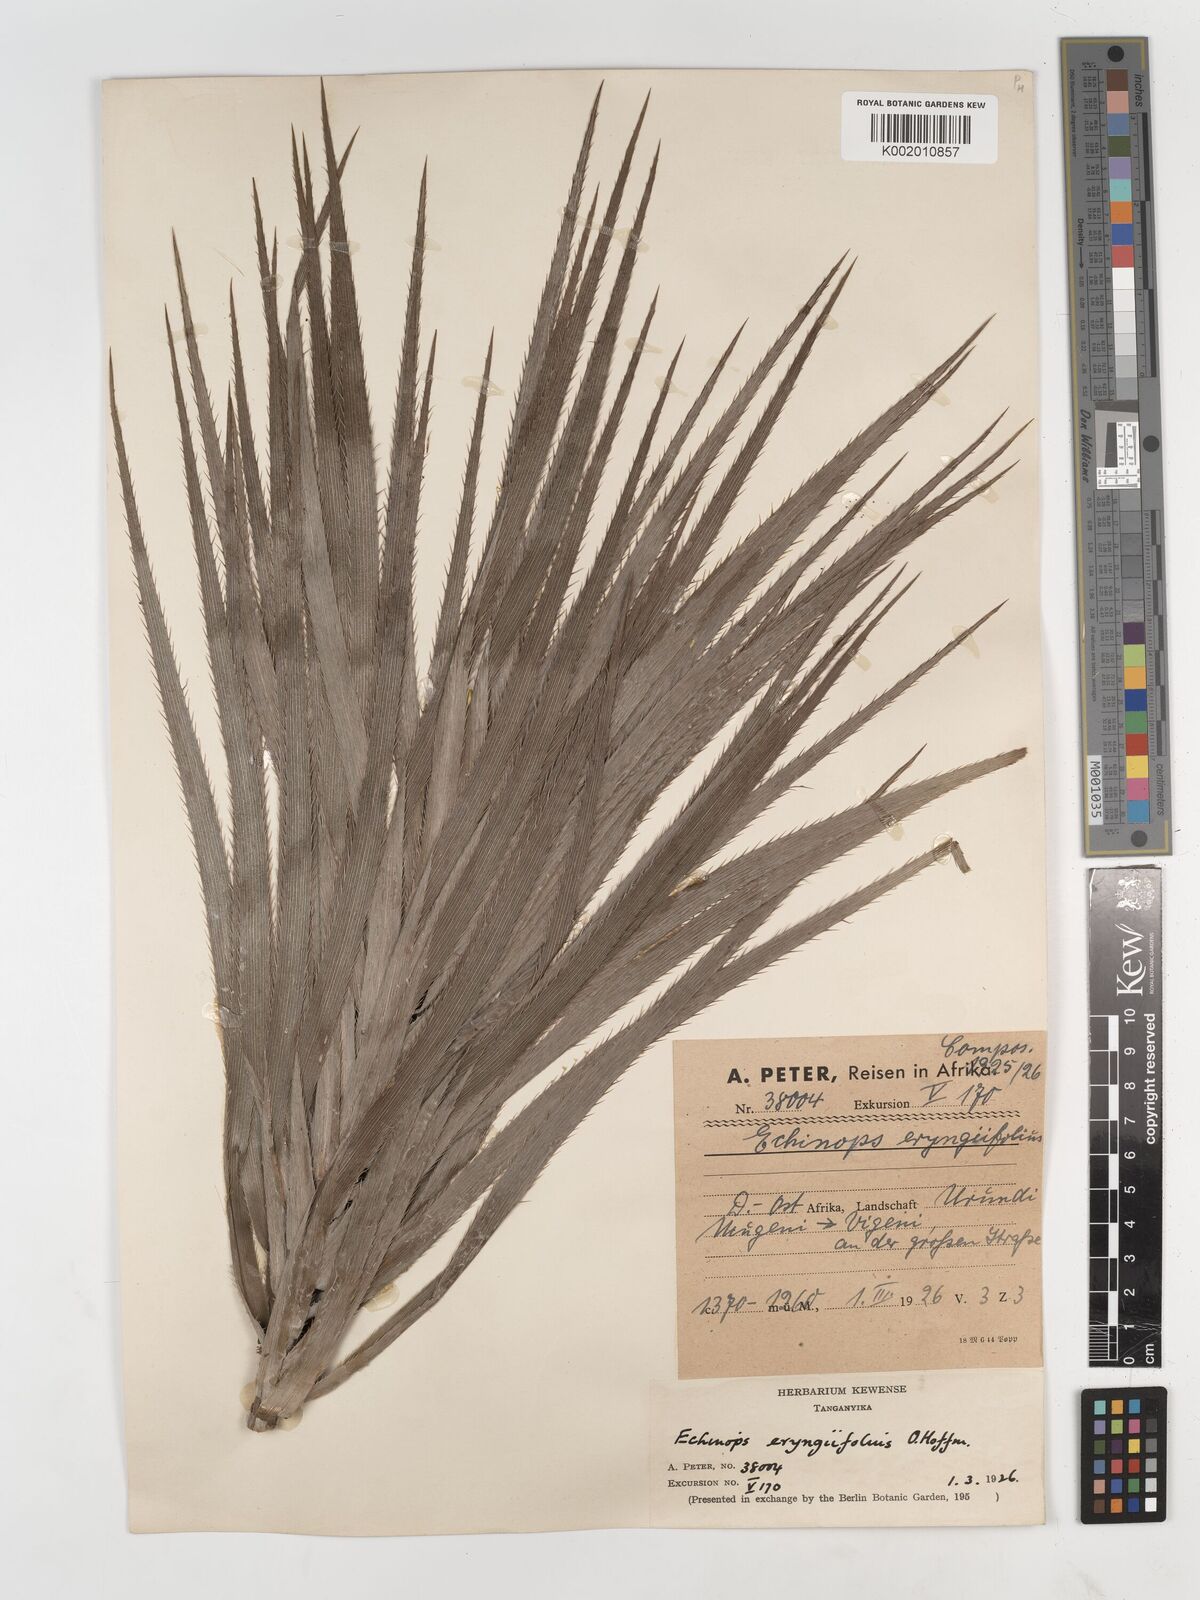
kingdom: Plantae
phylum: Tracheophyta
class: Magnoliopsida
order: Asterales
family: Asteraceae
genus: Echinops
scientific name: Echinops eryngiifolius
